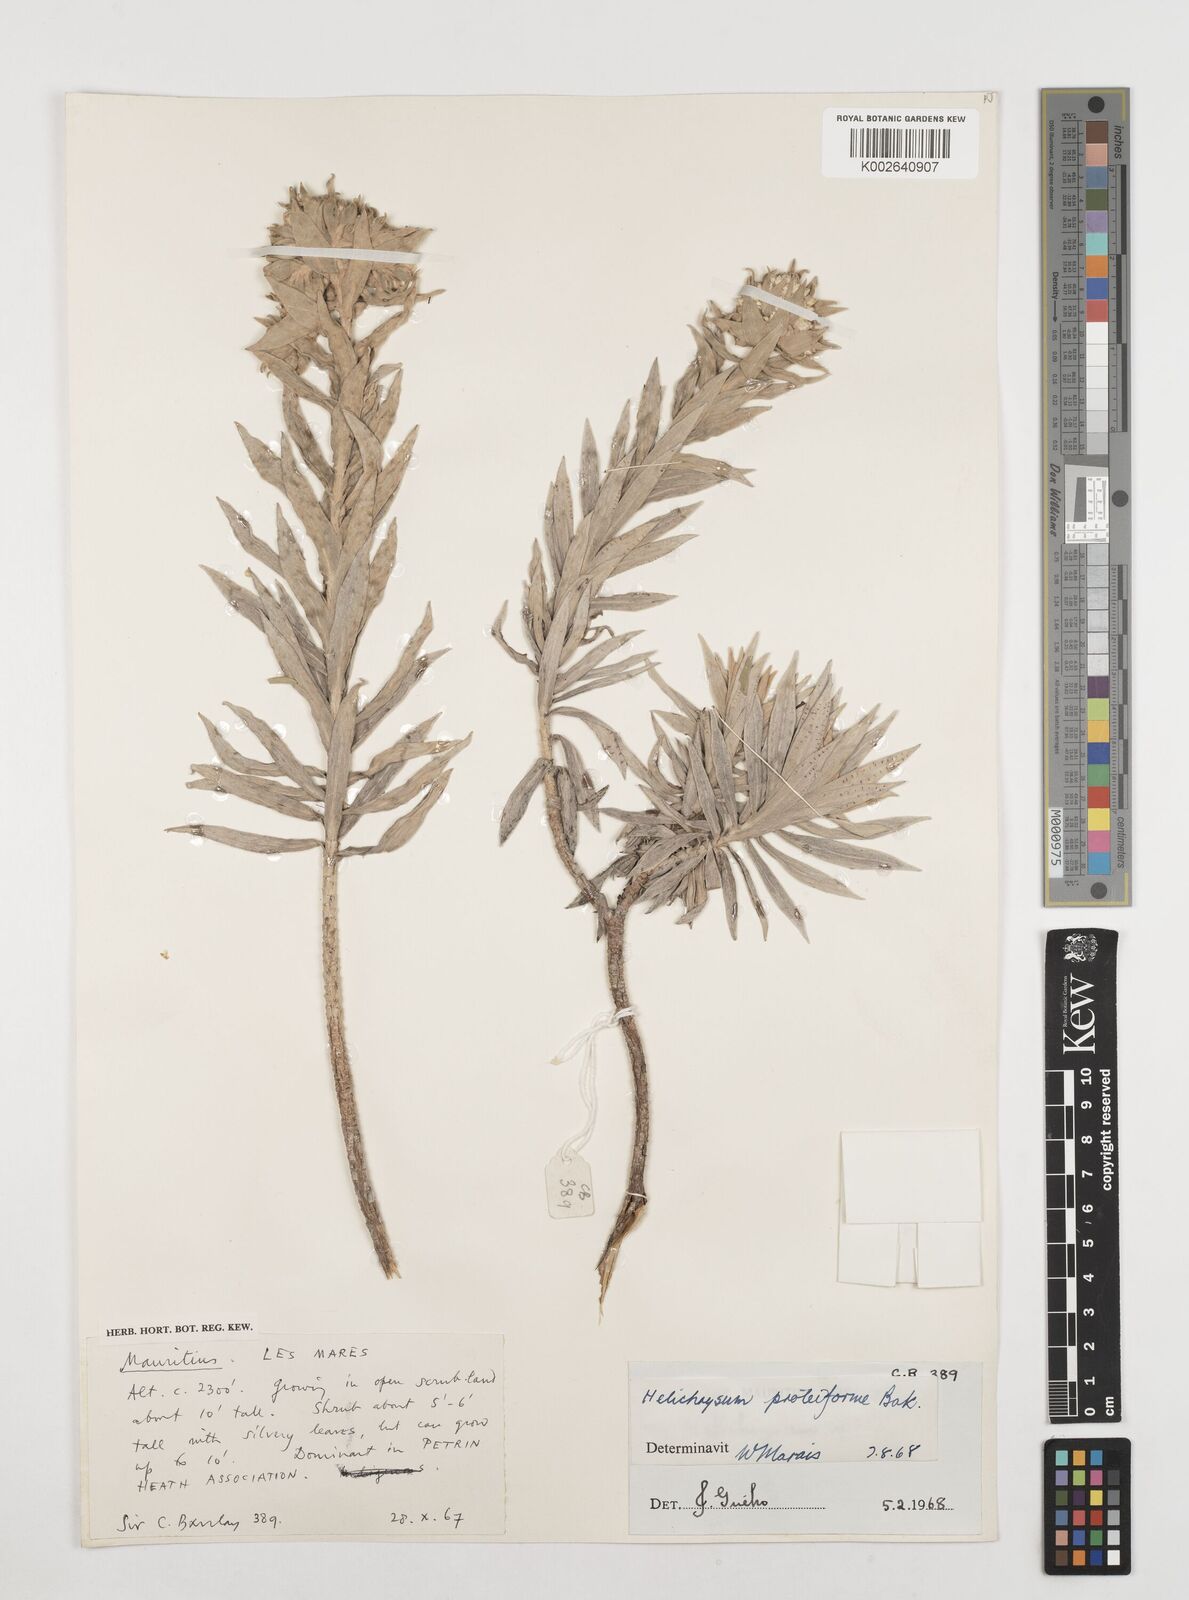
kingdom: Plantae
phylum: Tracheophyta
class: Magnoliopsida
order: Asterales
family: Asteraceae
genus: Helichrysum
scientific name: Helichrysum proteoides
